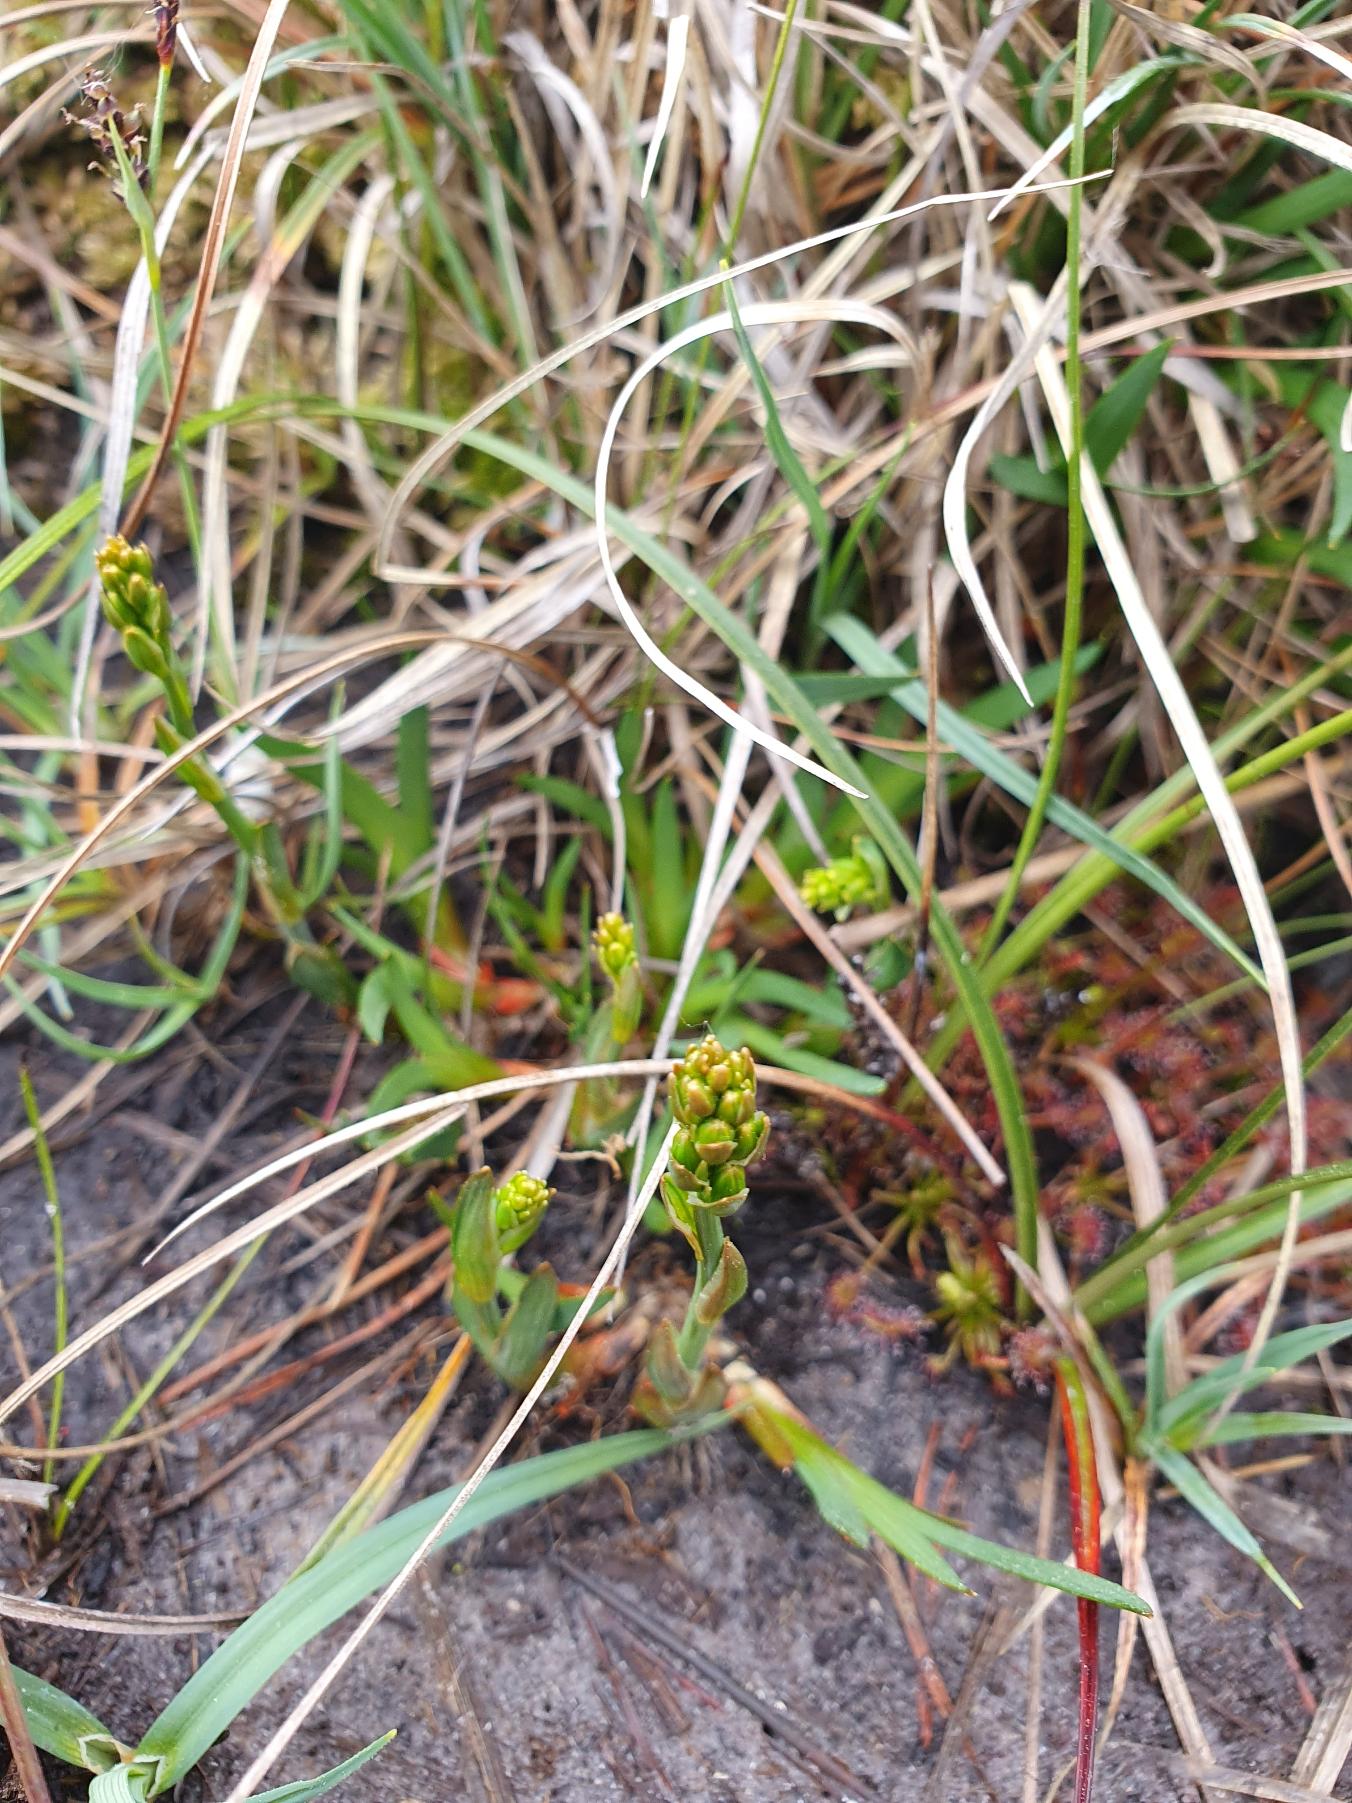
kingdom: Plantae
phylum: Tracheophyta
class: Liliopsida
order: Dioscoreales
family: Nartheciaceae
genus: Narthecium
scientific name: Narthecium ossifragum
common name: Benbræk
